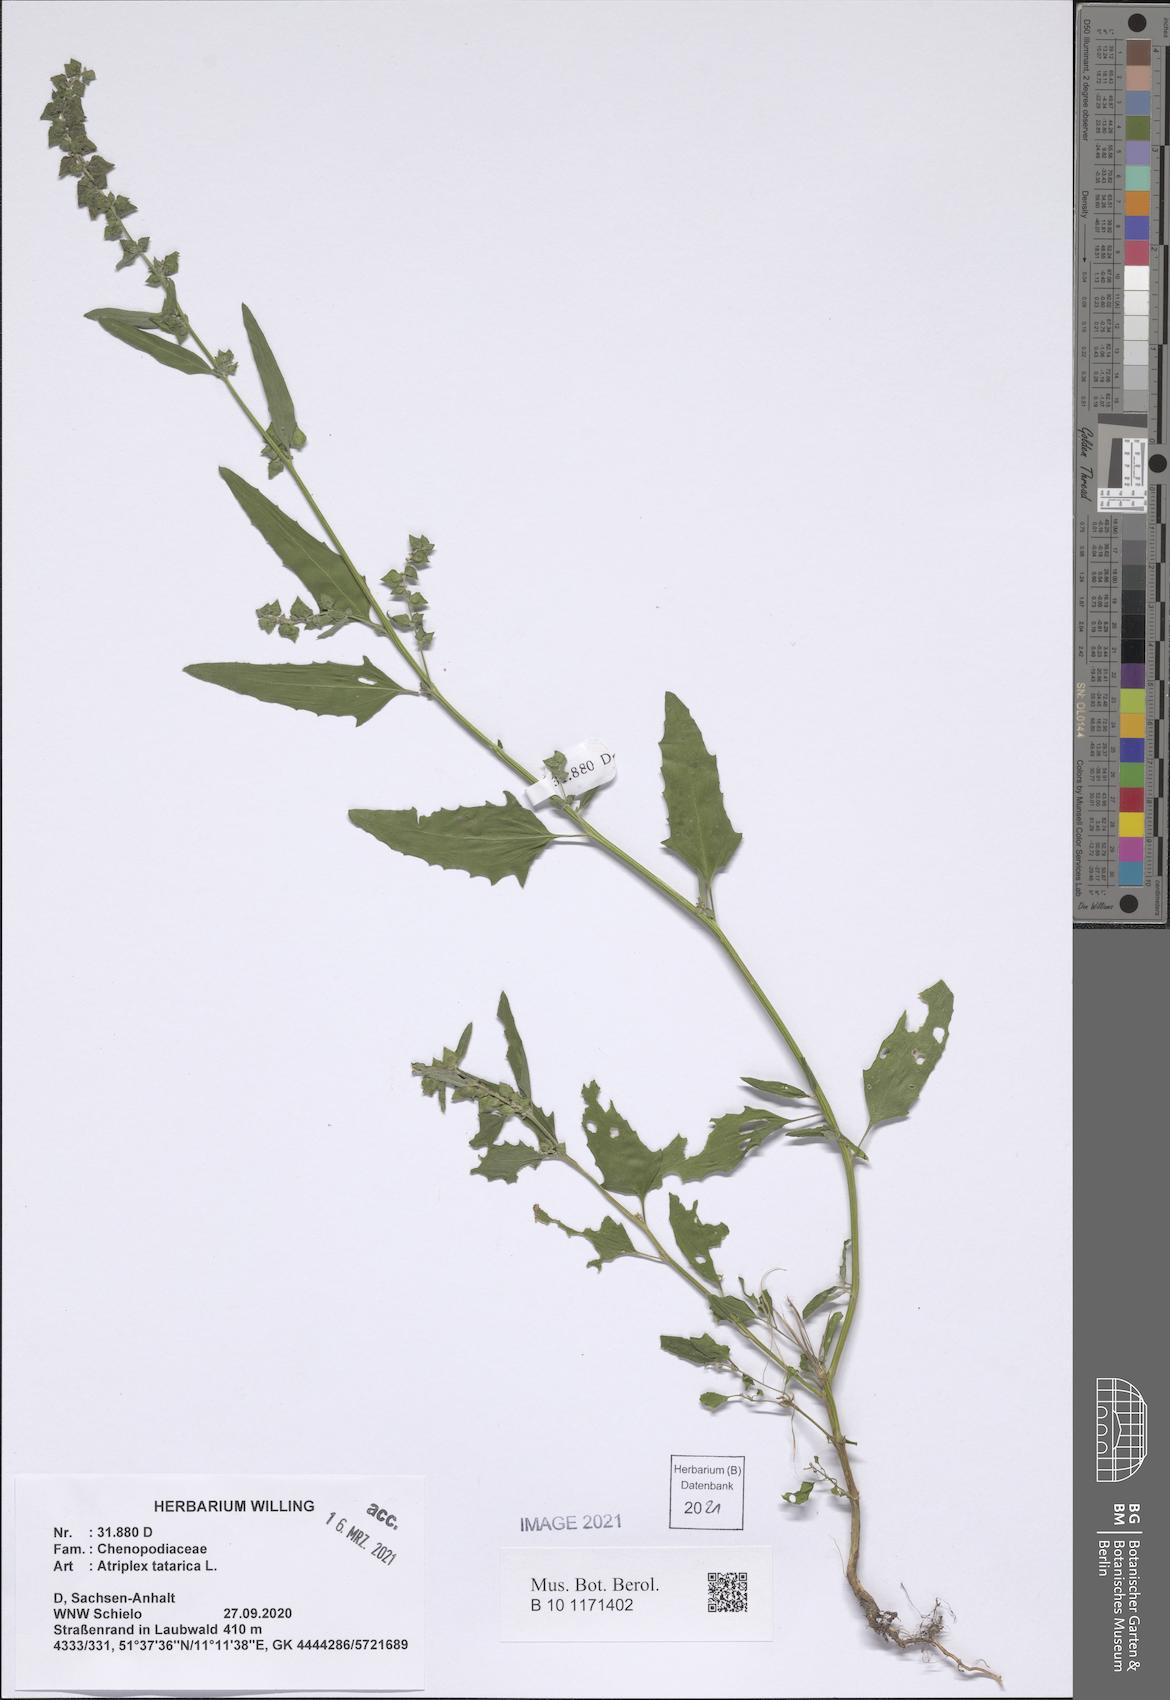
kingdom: Plantae
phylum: Tracheophyta
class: Magnoliopsida
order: Caryophyllales
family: Amaranthaceae
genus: Atriplex
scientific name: Atriplex tatarica
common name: Tatarian orache
